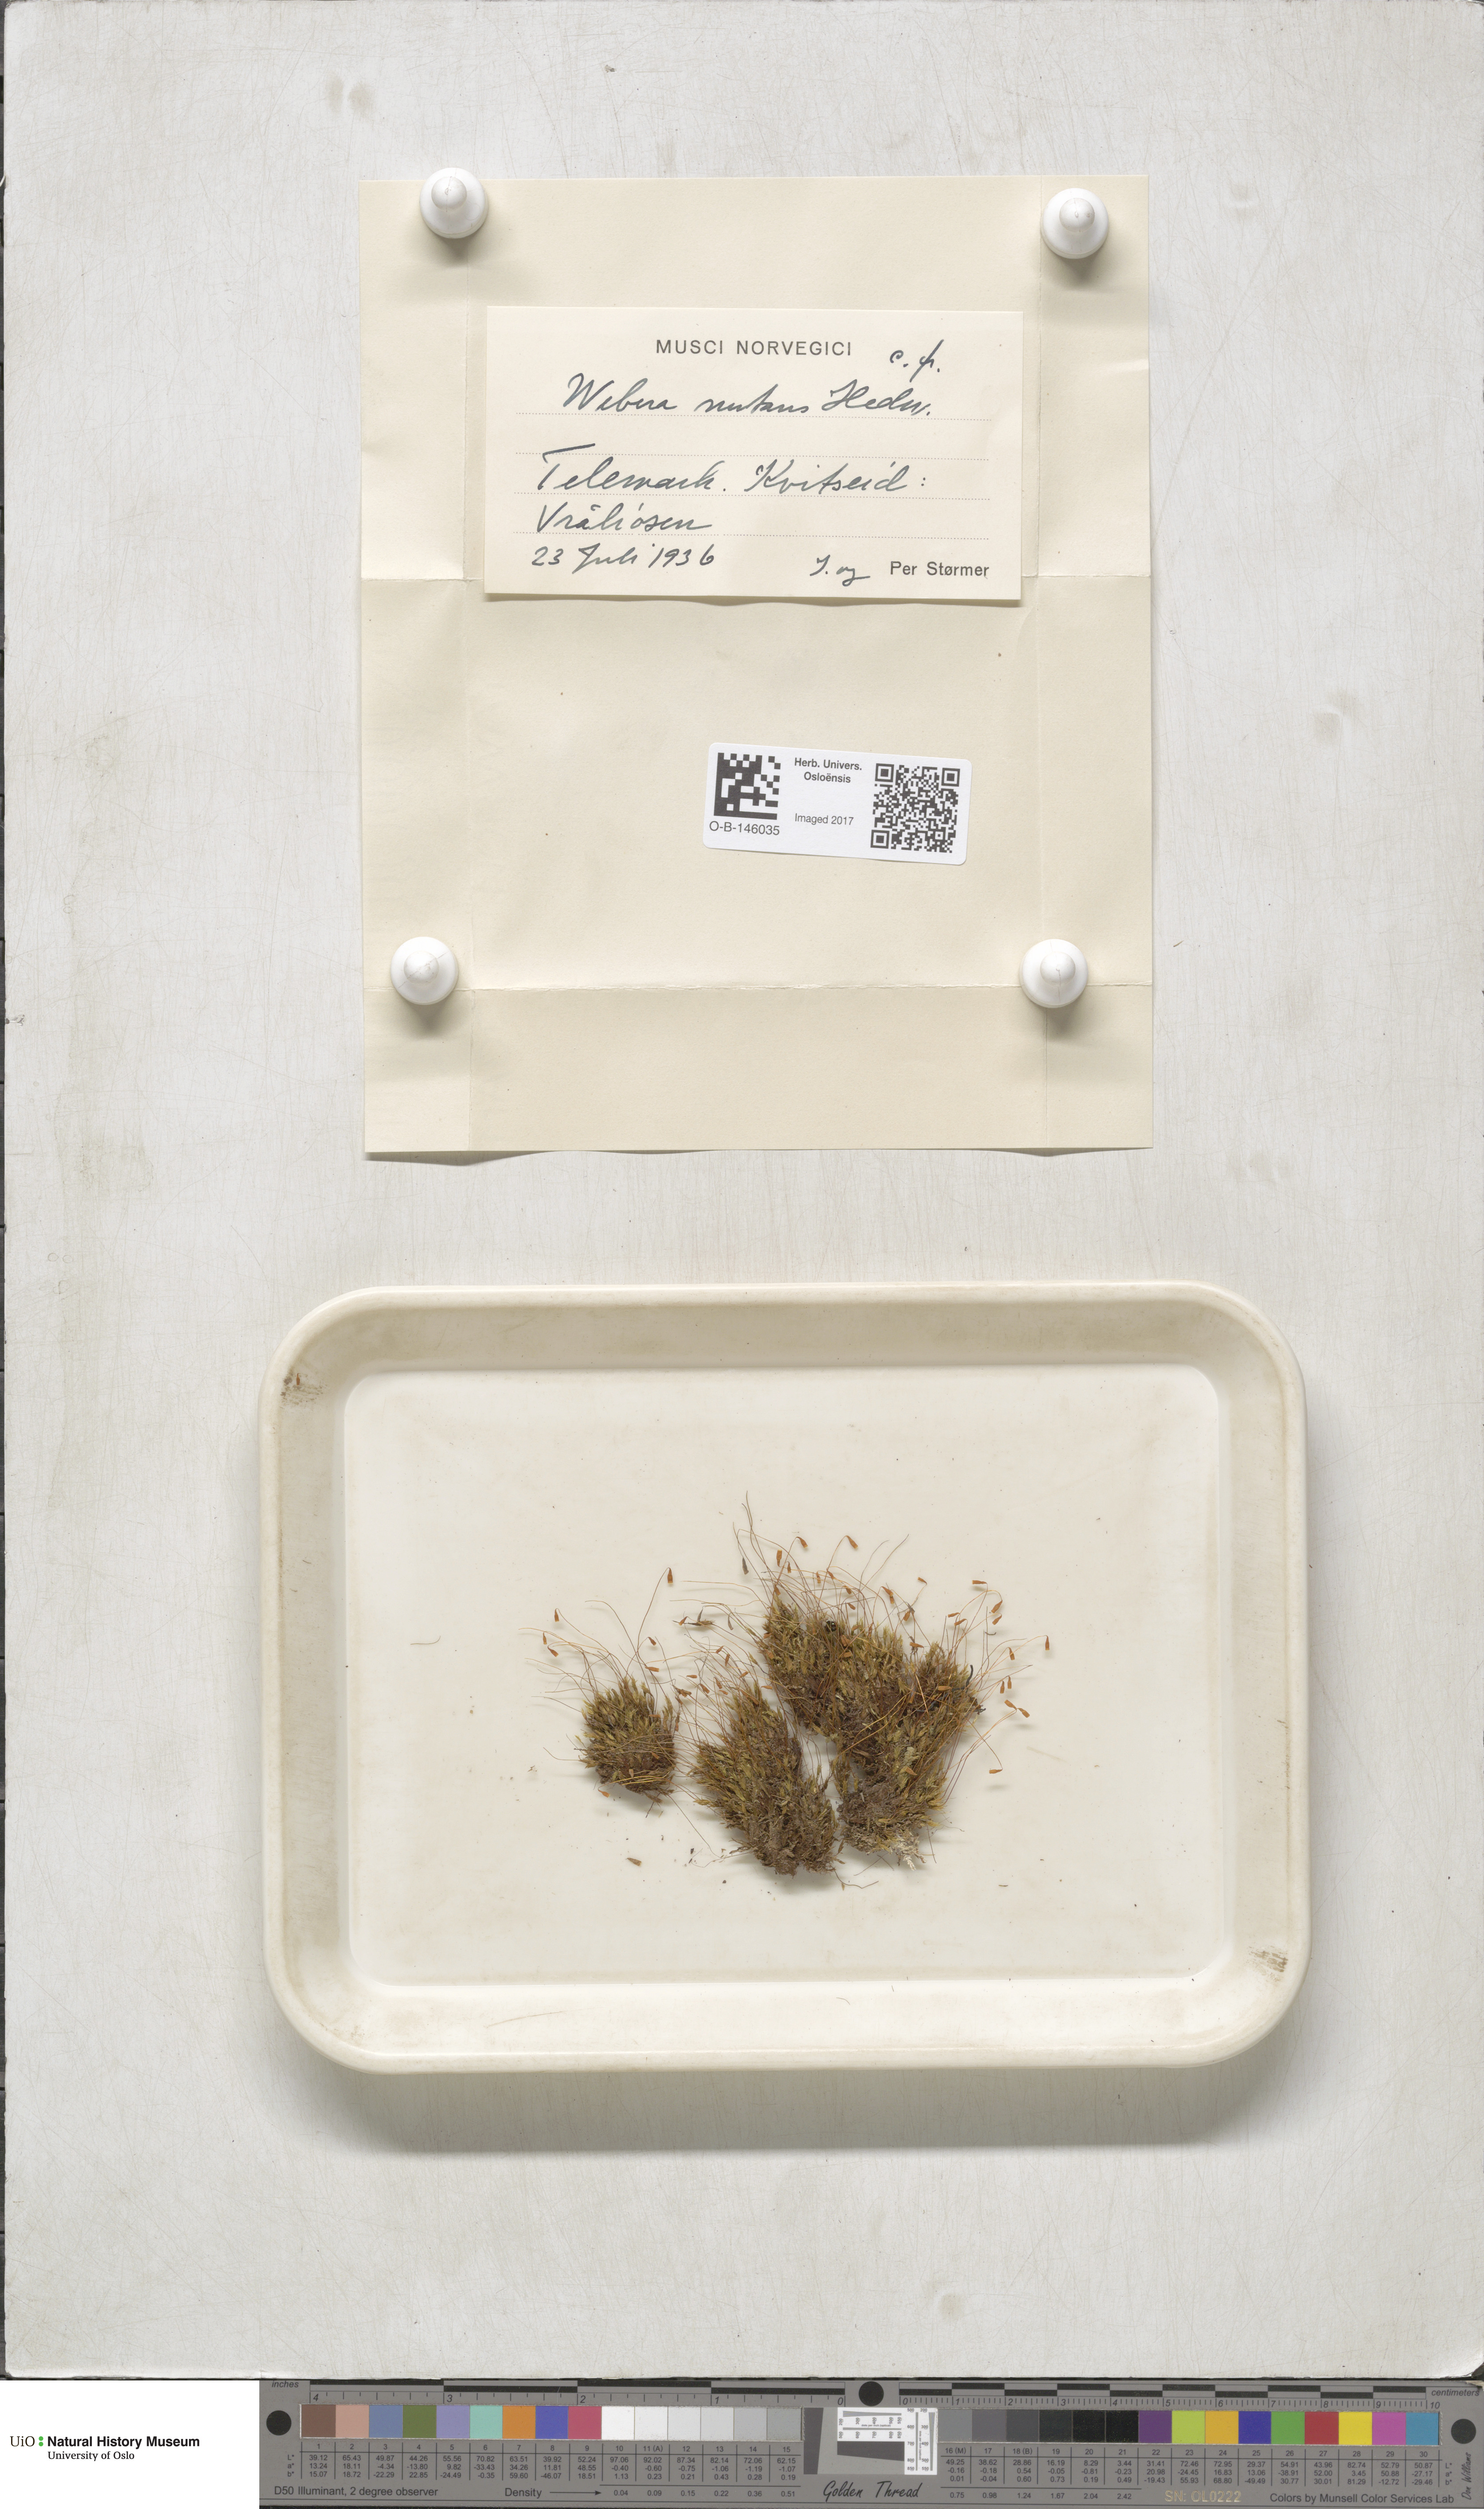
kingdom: Plantae
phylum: Bryophyta
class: Bryopsida
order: Bryales
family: Mniaceae
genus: Pohlia
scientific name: Pohlia nutans
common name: Nodding thread-moss
